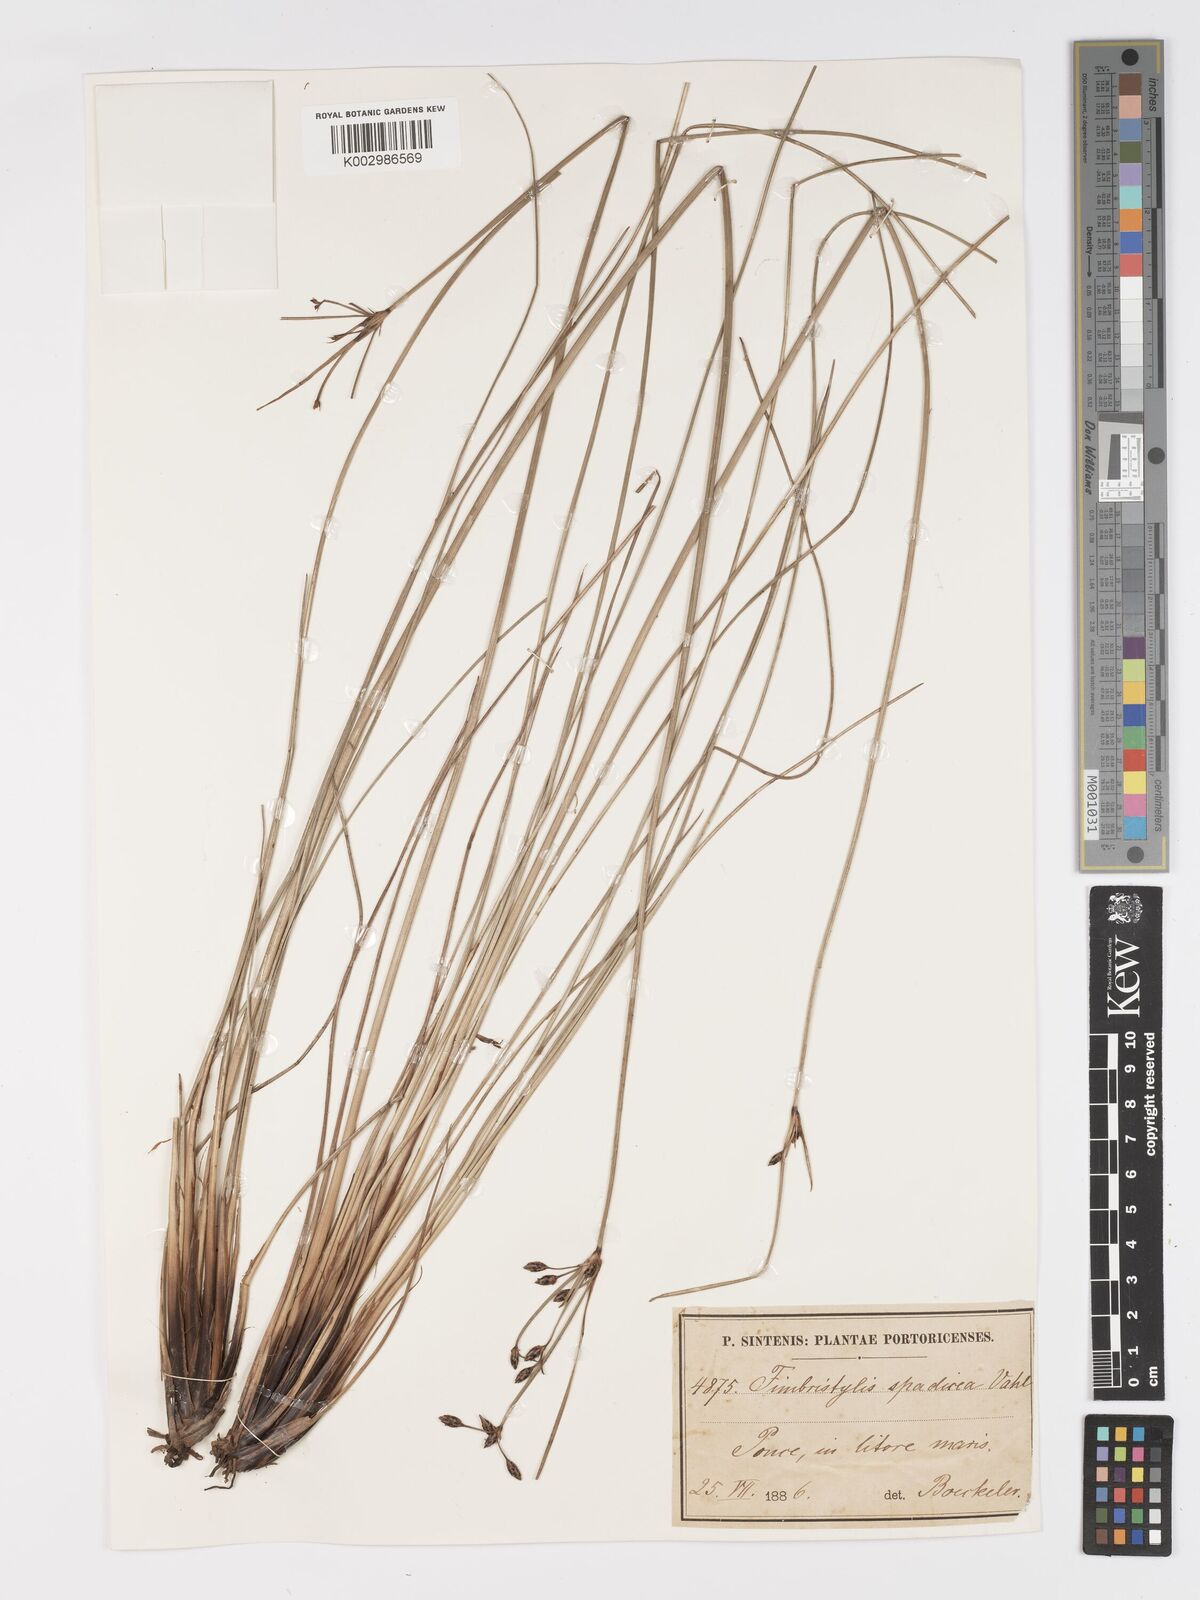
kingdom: Plantae
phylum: Tracheophyta
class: Liliopsida
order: Poales
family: Cyperaceae
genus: Fimbristylis
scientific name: Fimbristylis spadicea
